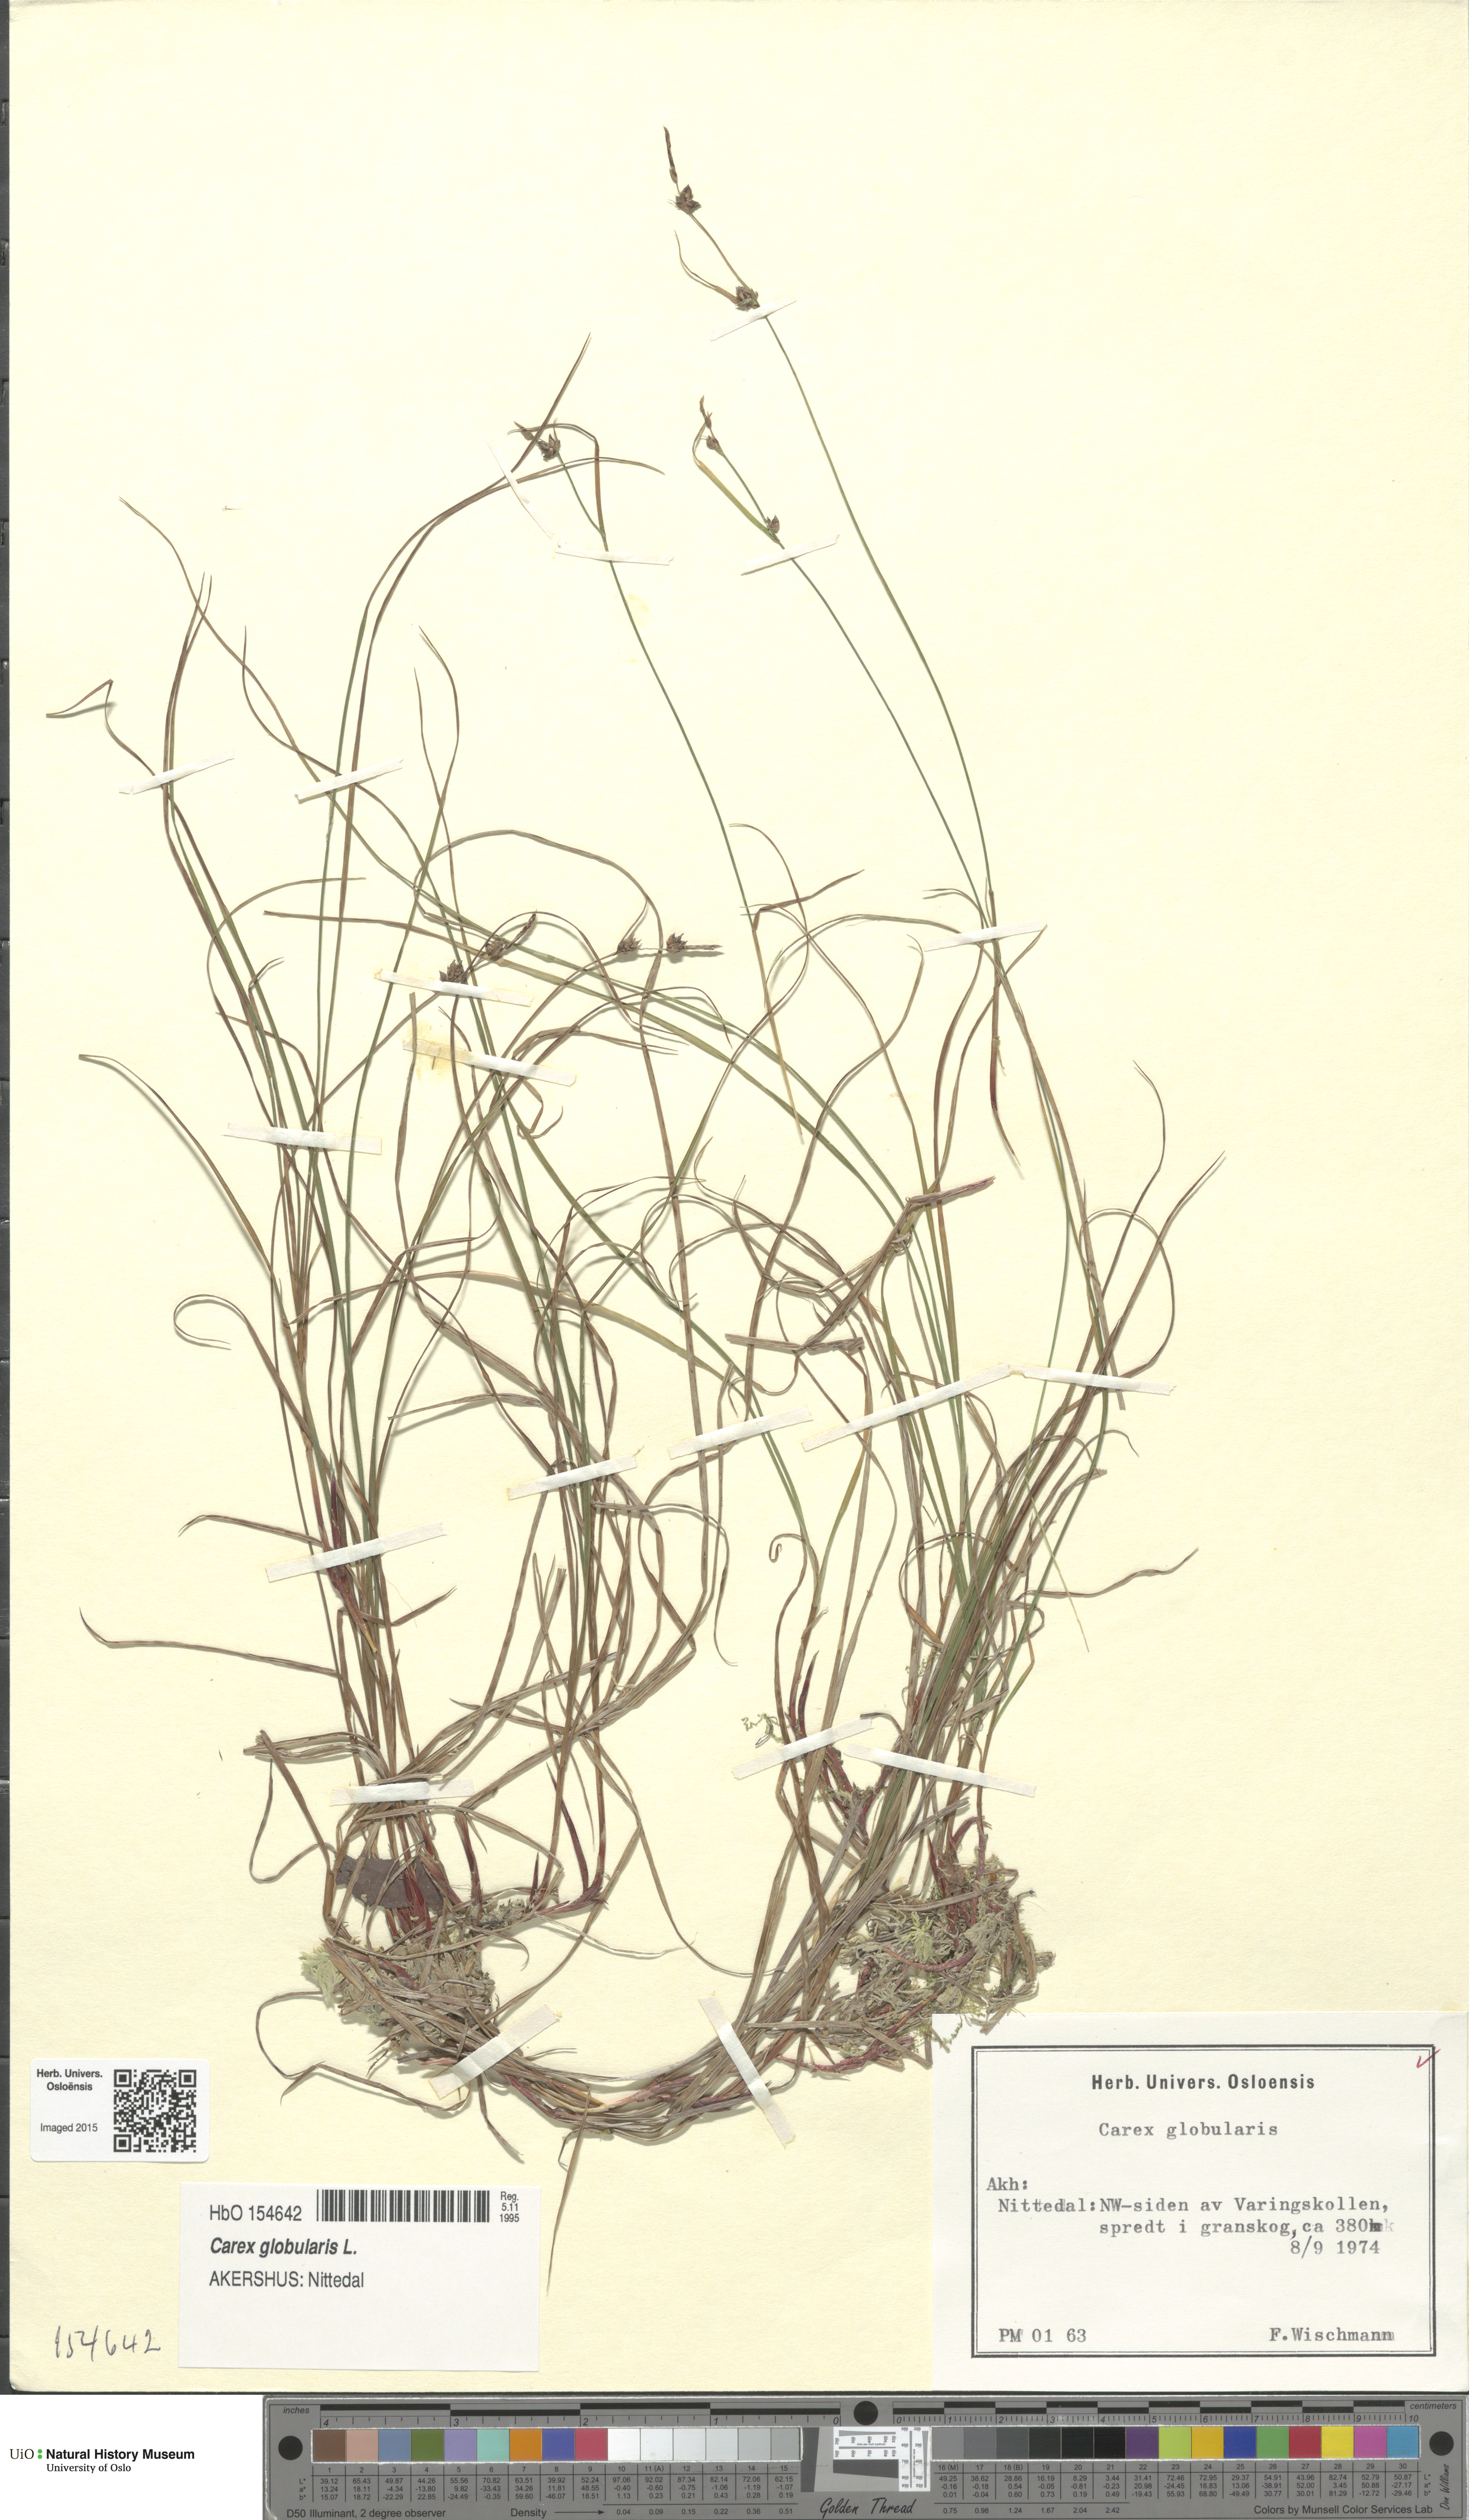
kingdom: Plantae
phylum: Tracheophyta
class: Liliopsida
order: Poales
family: Cyperaceae
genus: Carex
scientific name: Carex globularis
